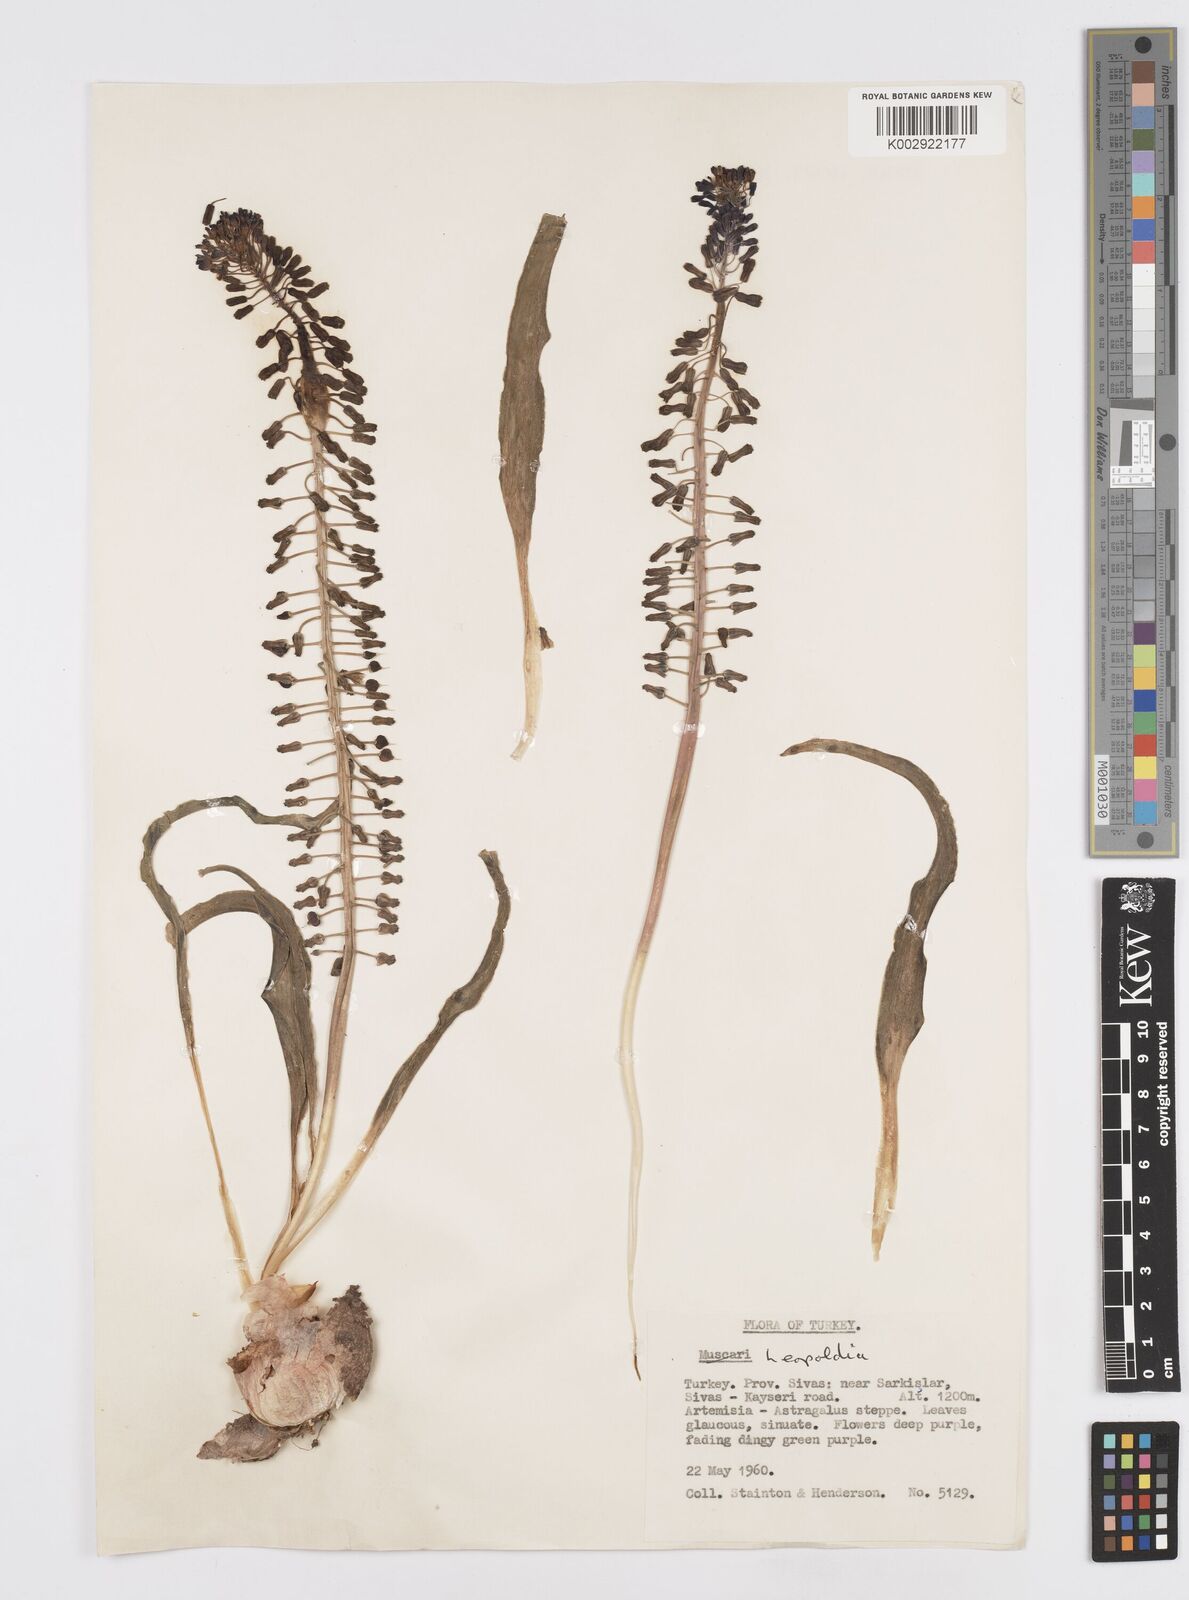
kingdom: Plantae
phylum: Tracheophyta
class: Liliopsida
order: Asparagales
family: Asparagaceae
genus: Muscari
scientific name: Muscari comosum
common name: Tassel hyacinth
